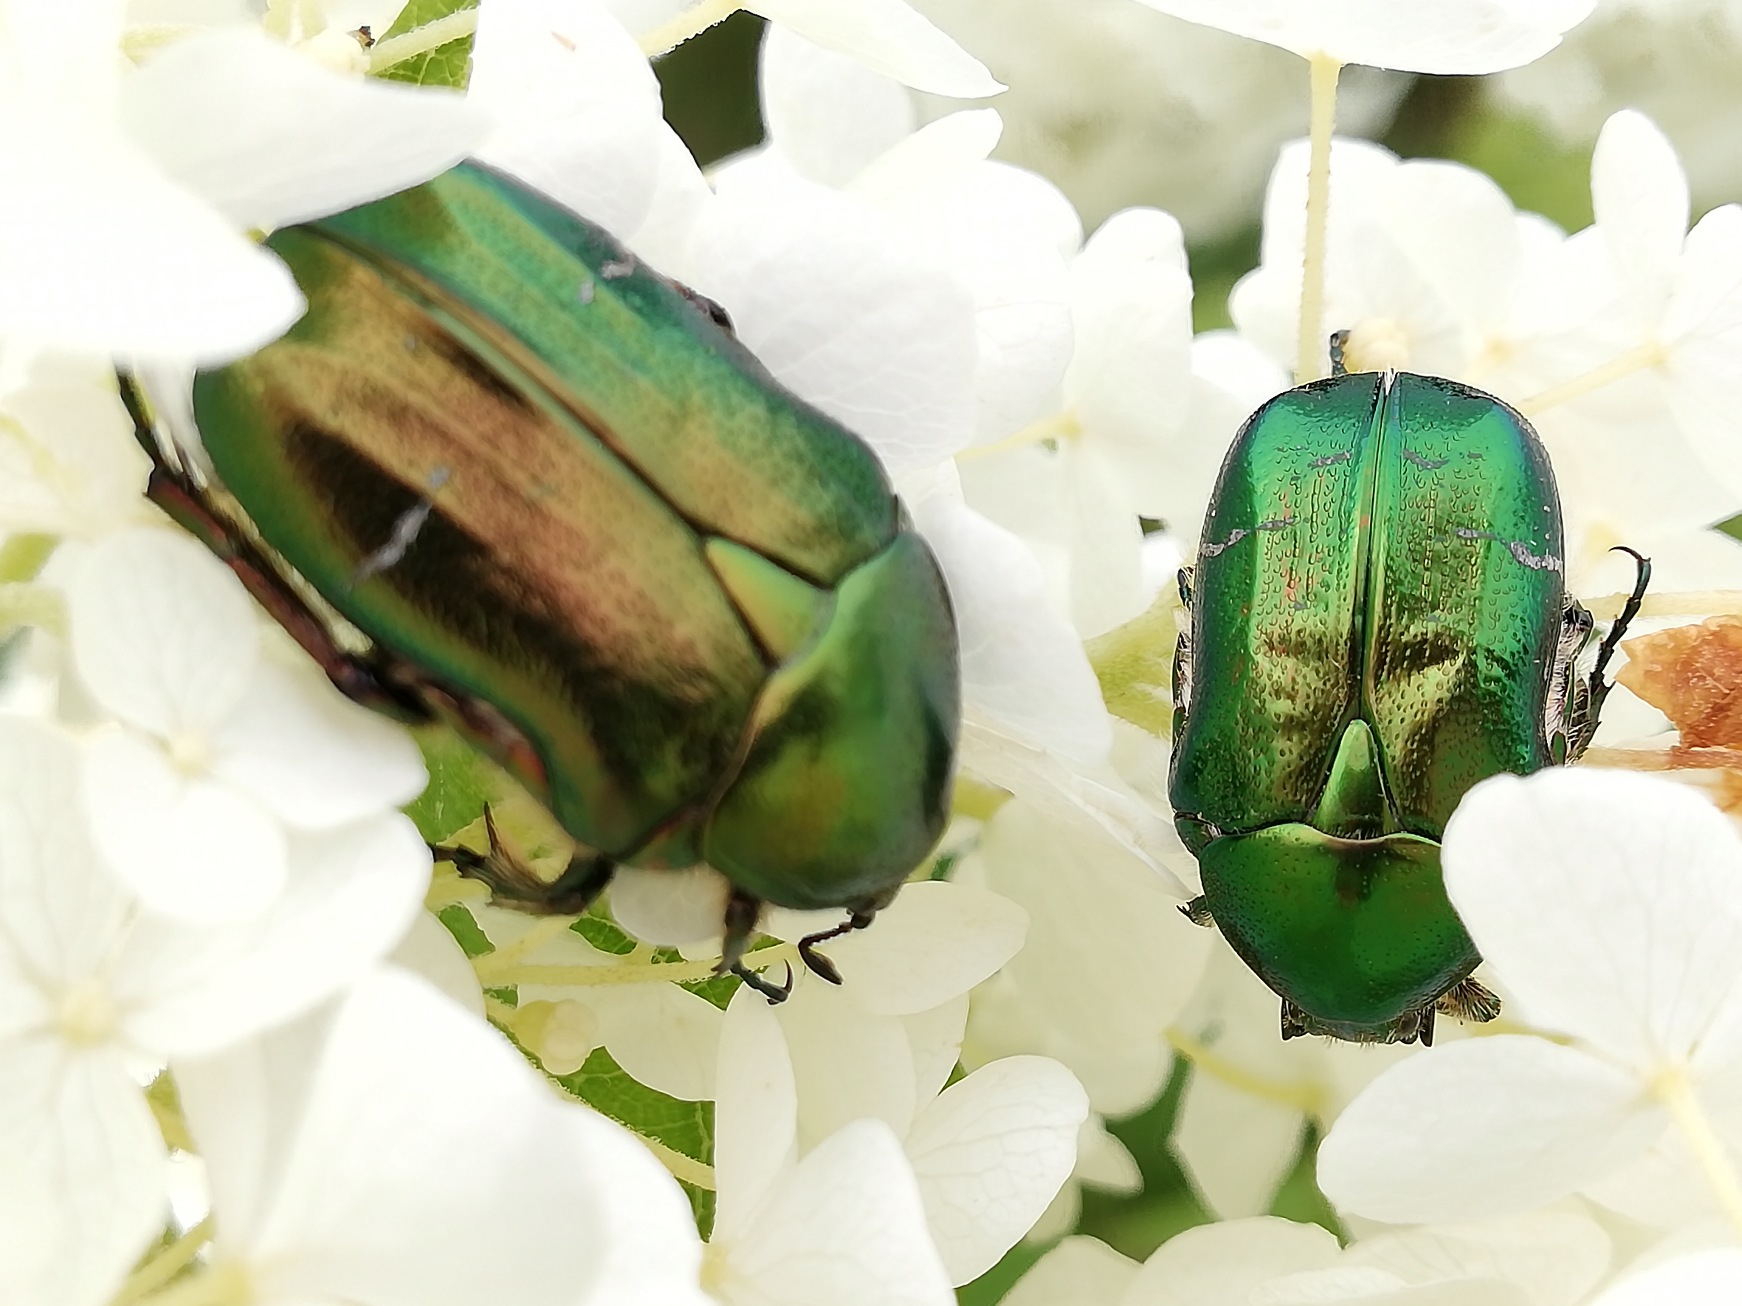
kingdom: Animalia
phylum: Arthropoda
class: Insecta
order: Coleoptera
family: Scarabaeidae
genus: Cetonia
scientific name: Cetonia aurata
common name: Grøn guldbasse
